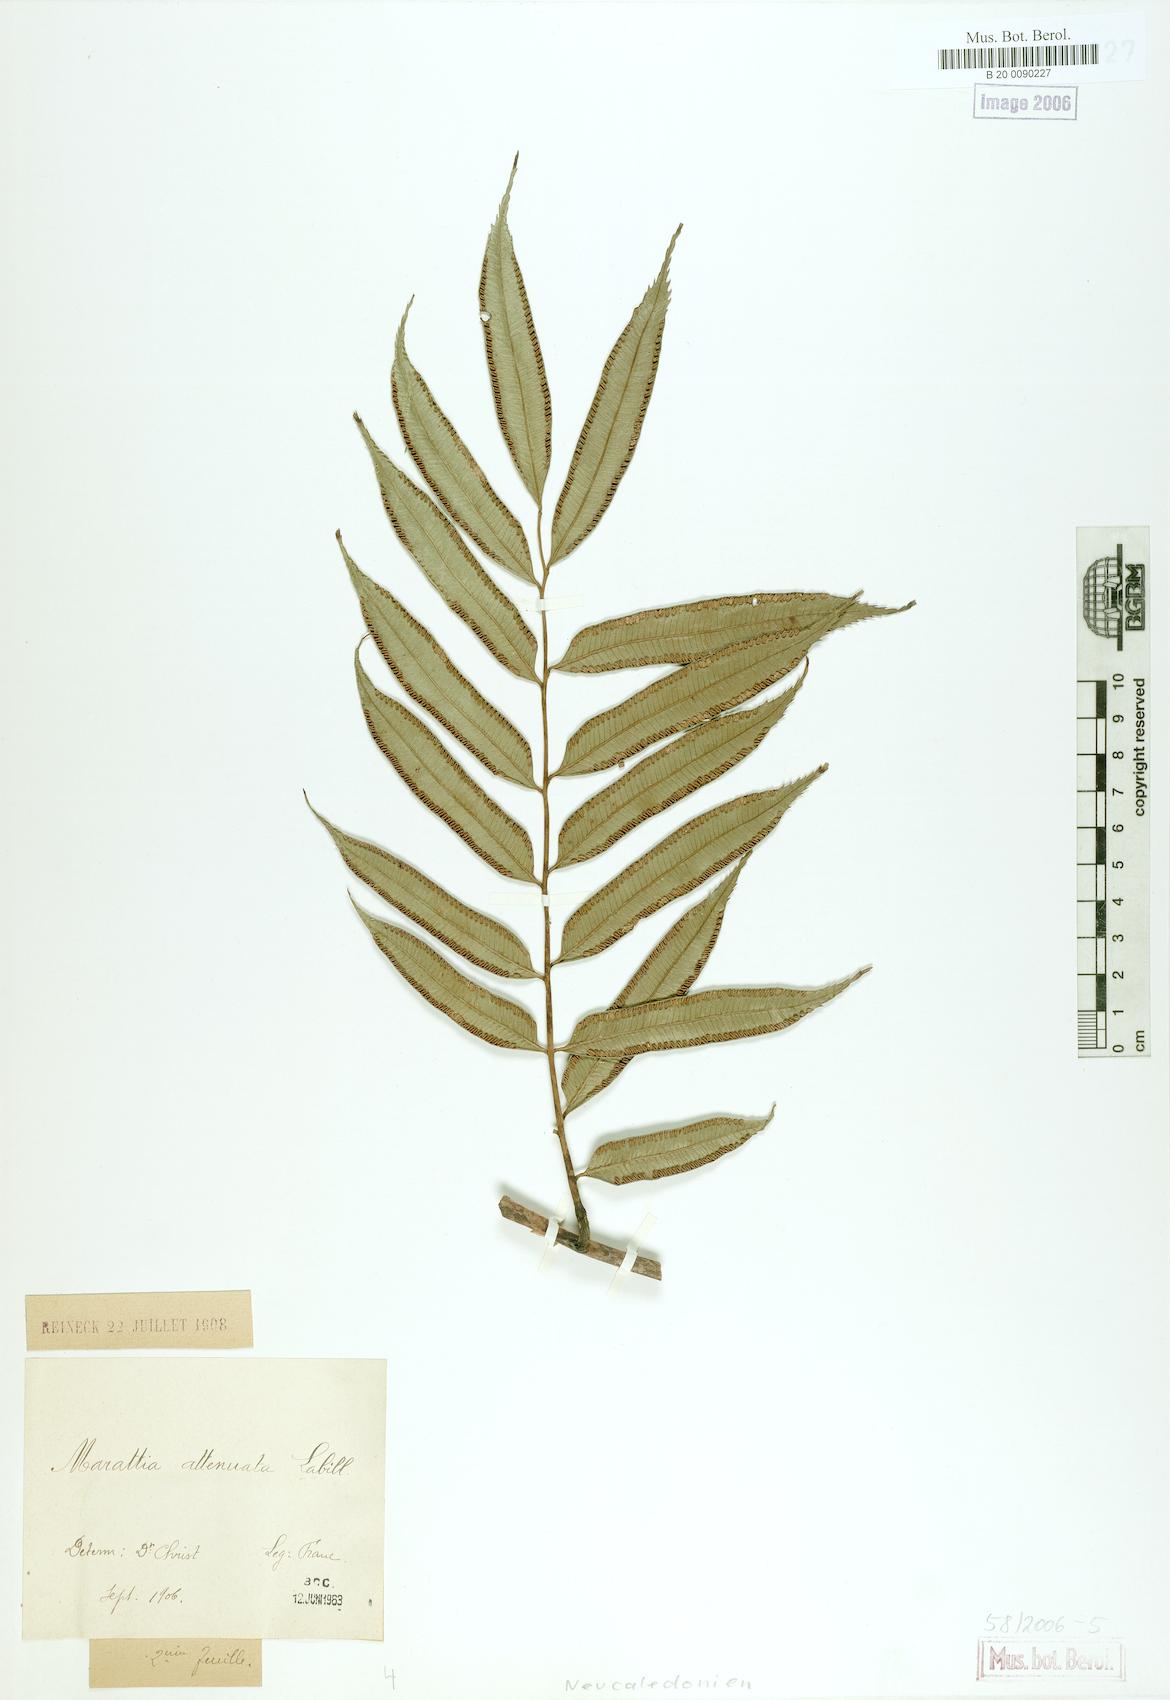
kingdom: Plantae
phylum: Tracheophyta
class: Polypodiopsida
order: Marattiales
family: Marattiaceae
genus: Ptisana
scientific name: Ptisana attenuata
